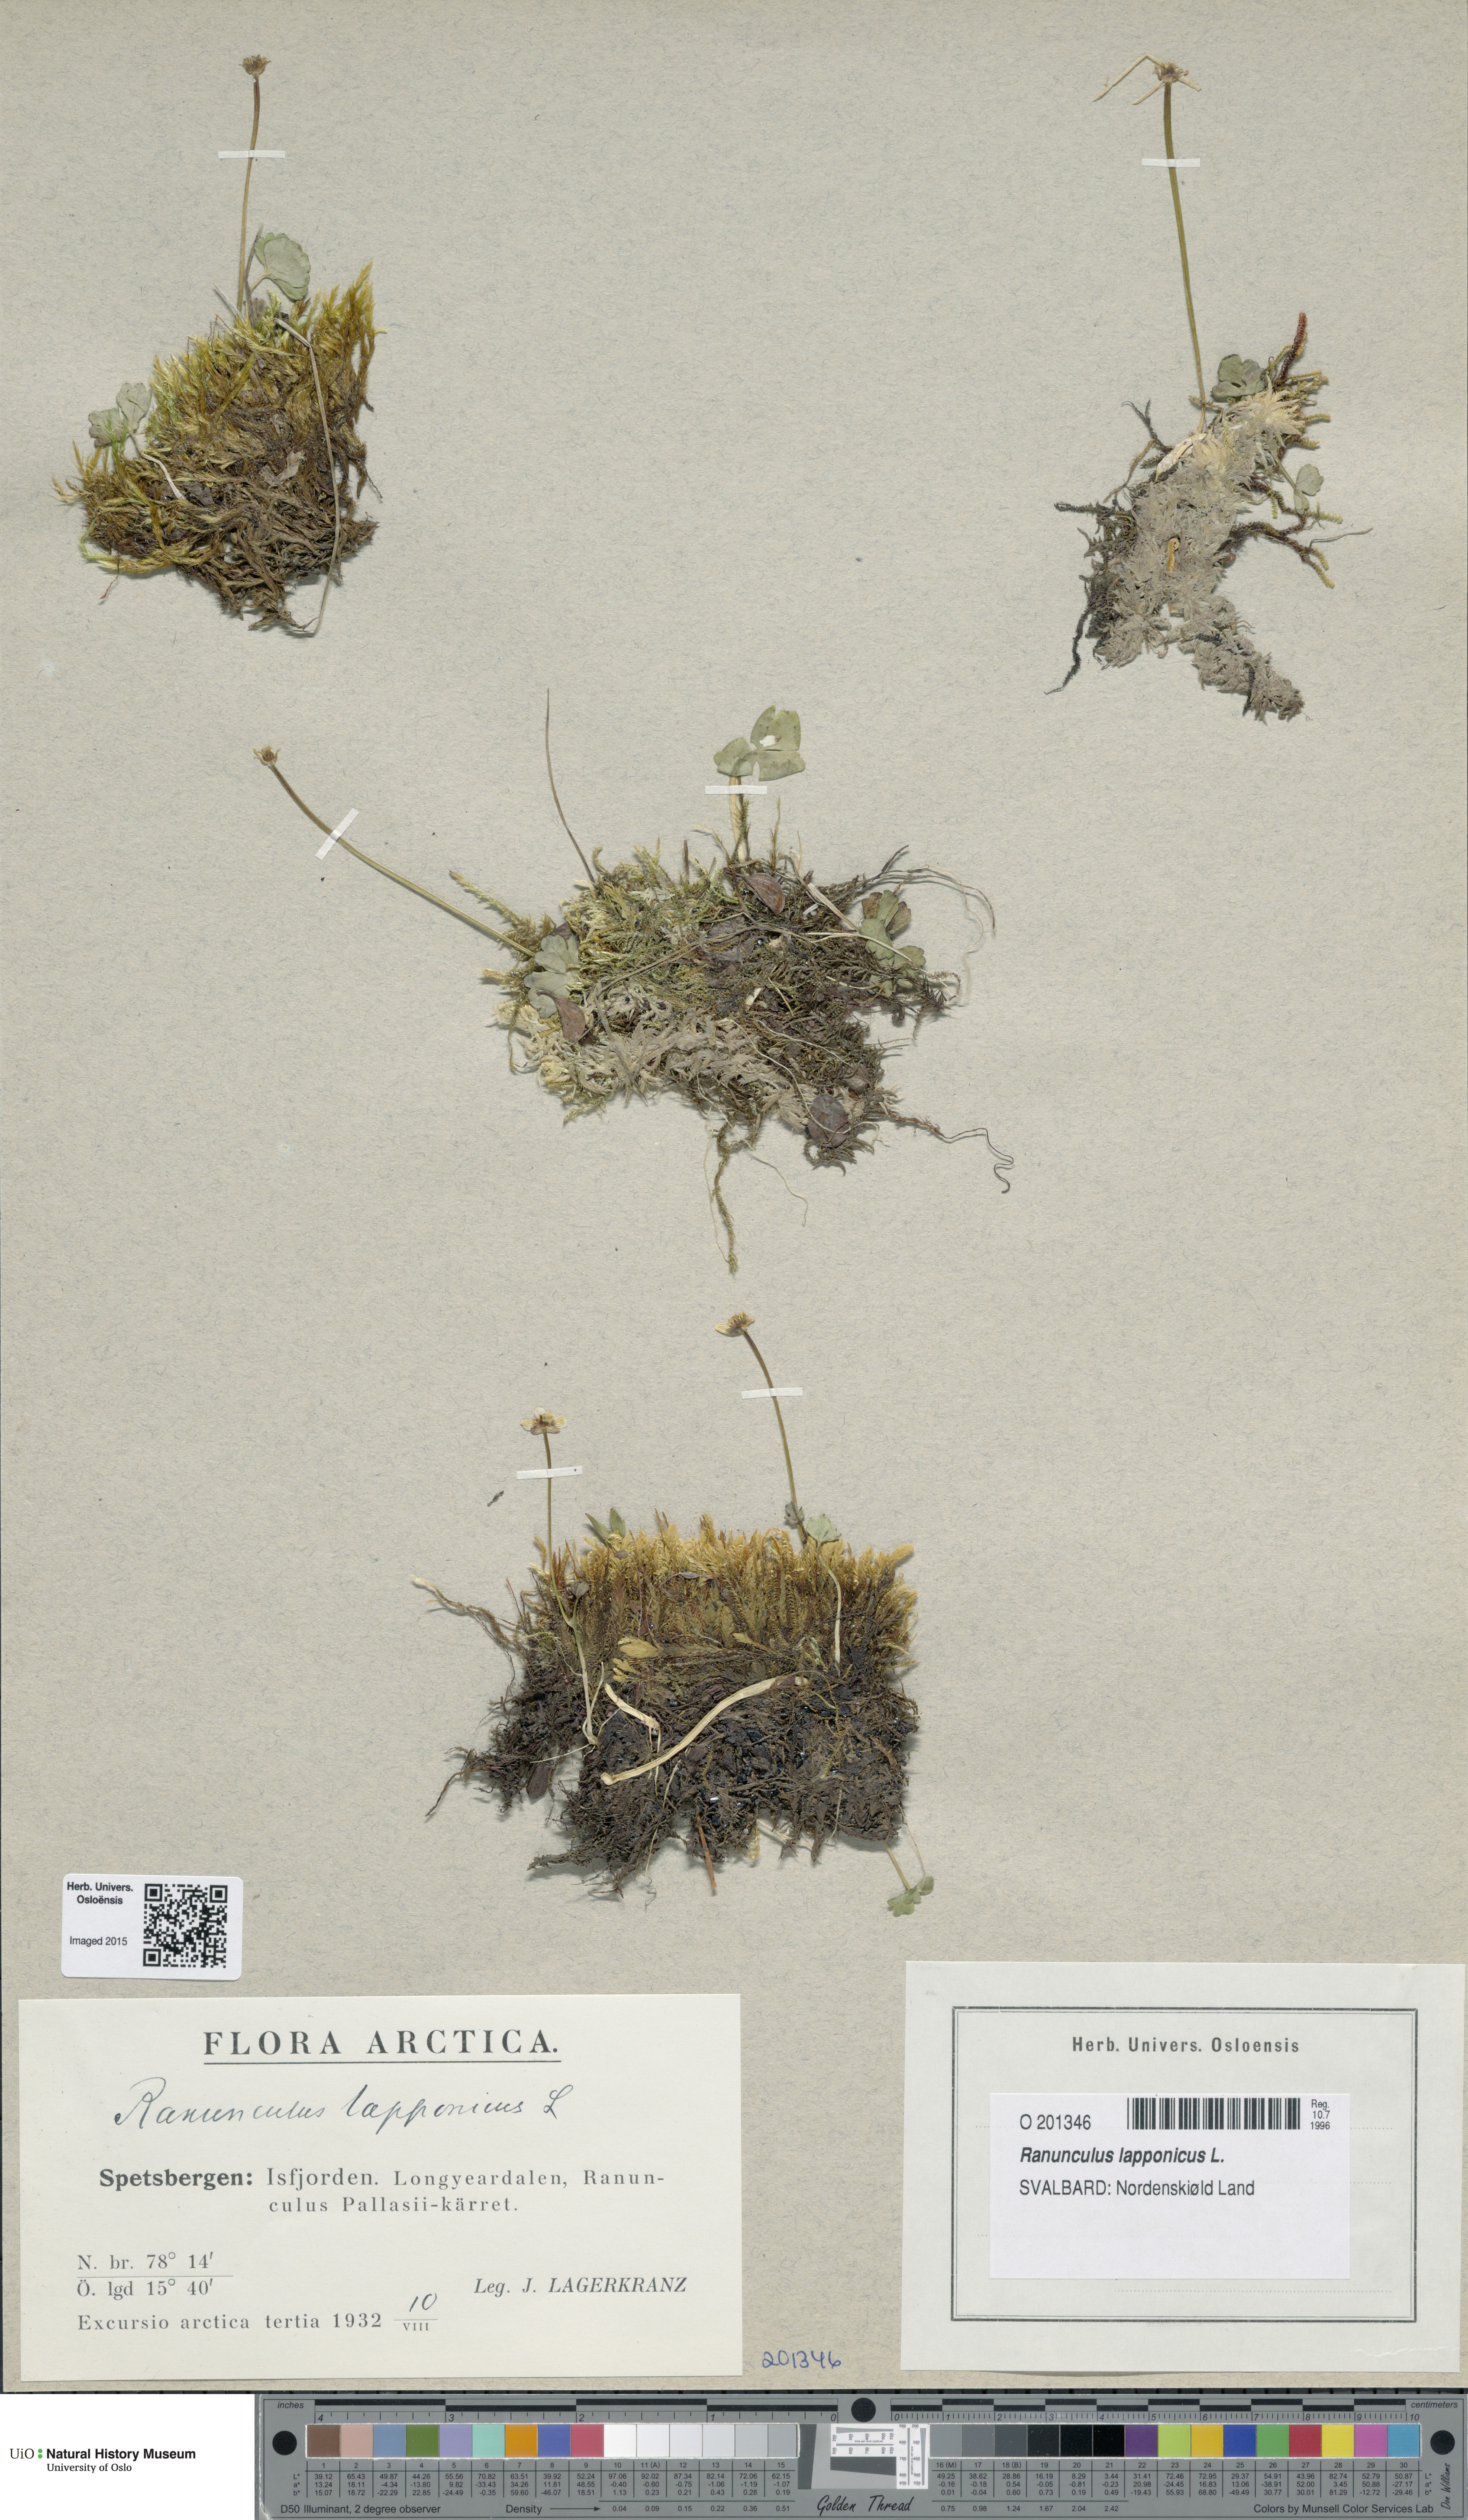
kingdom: Plantae
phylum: Tracheophyta
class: Magnoliopsida
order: Ranunculales
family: Ranunculaceae
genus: Coptidium
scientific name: Coptidium lapponicum
